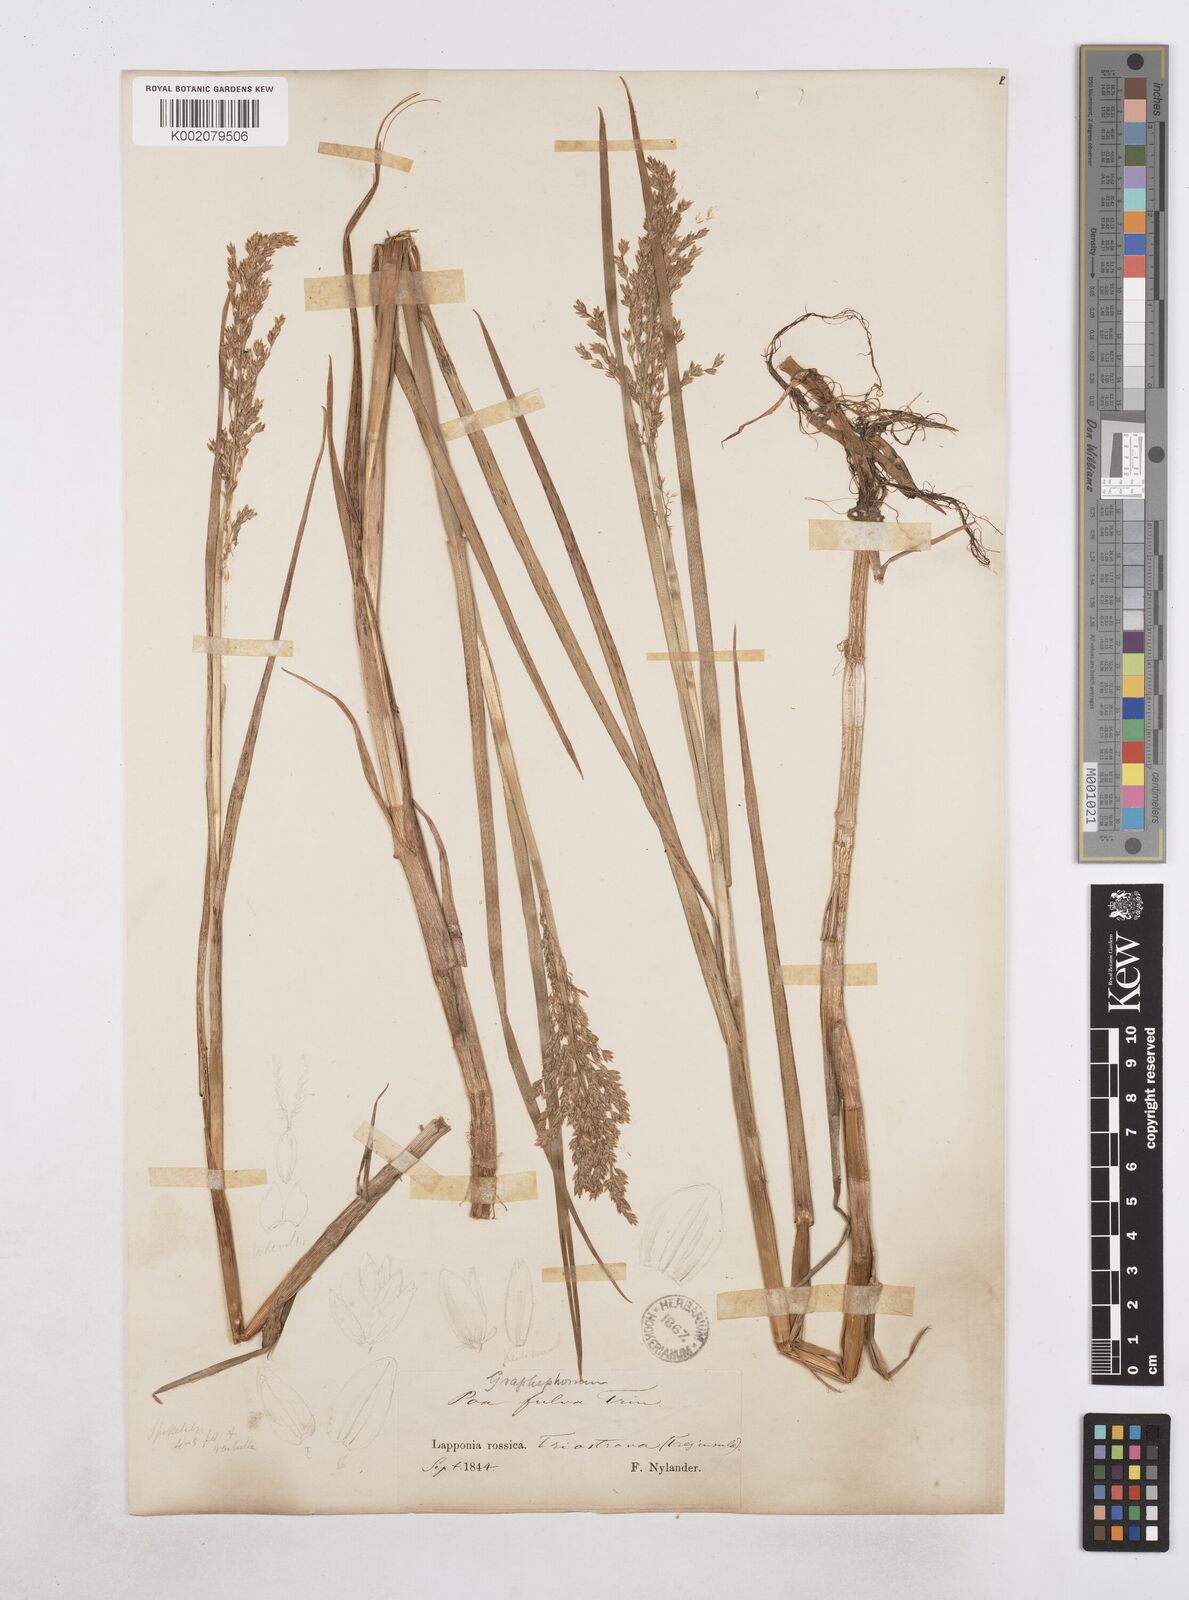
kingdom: Plantae
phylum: Tracheophyta
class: Liliopsida
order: Poales
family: Poaceae
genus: Dupontia
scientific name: Dupontia fulva
